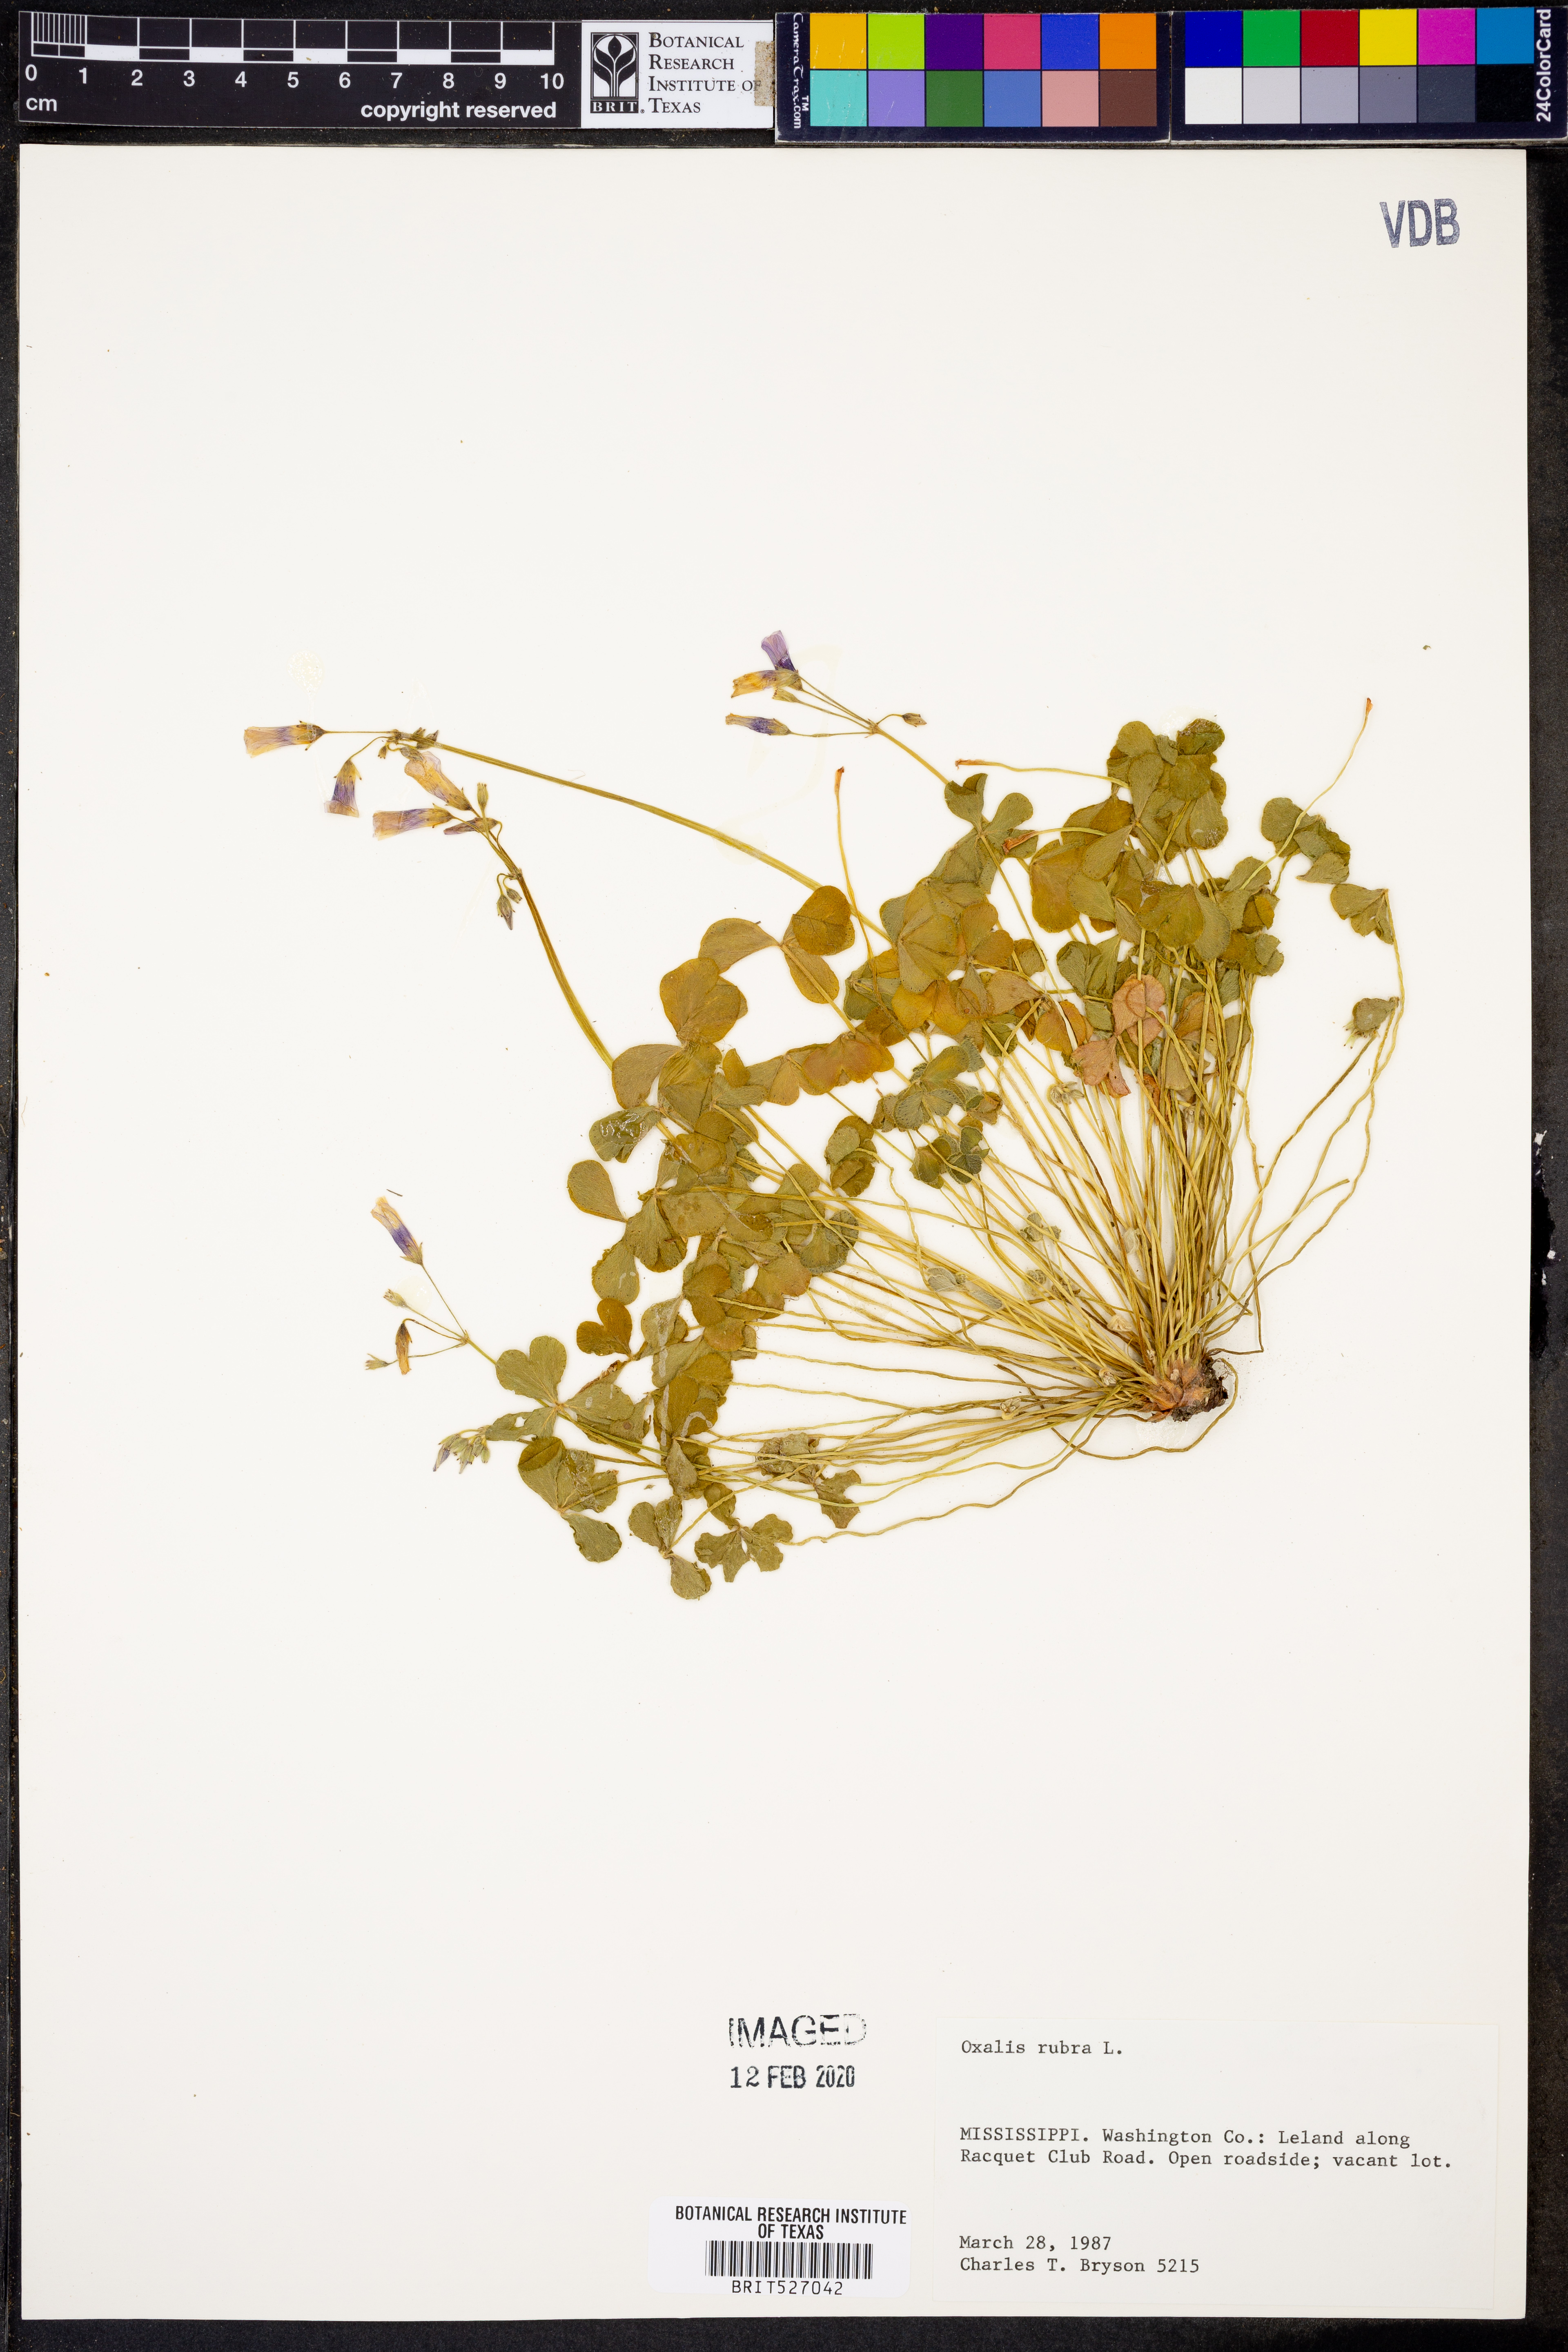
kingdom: Plantae
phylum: Tracheophyta
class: Magnoliopsida
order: Oxalidales
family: Oxalidaceae
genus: Oxalis
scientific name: Oxalis articulata
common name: Pink-sorrel
